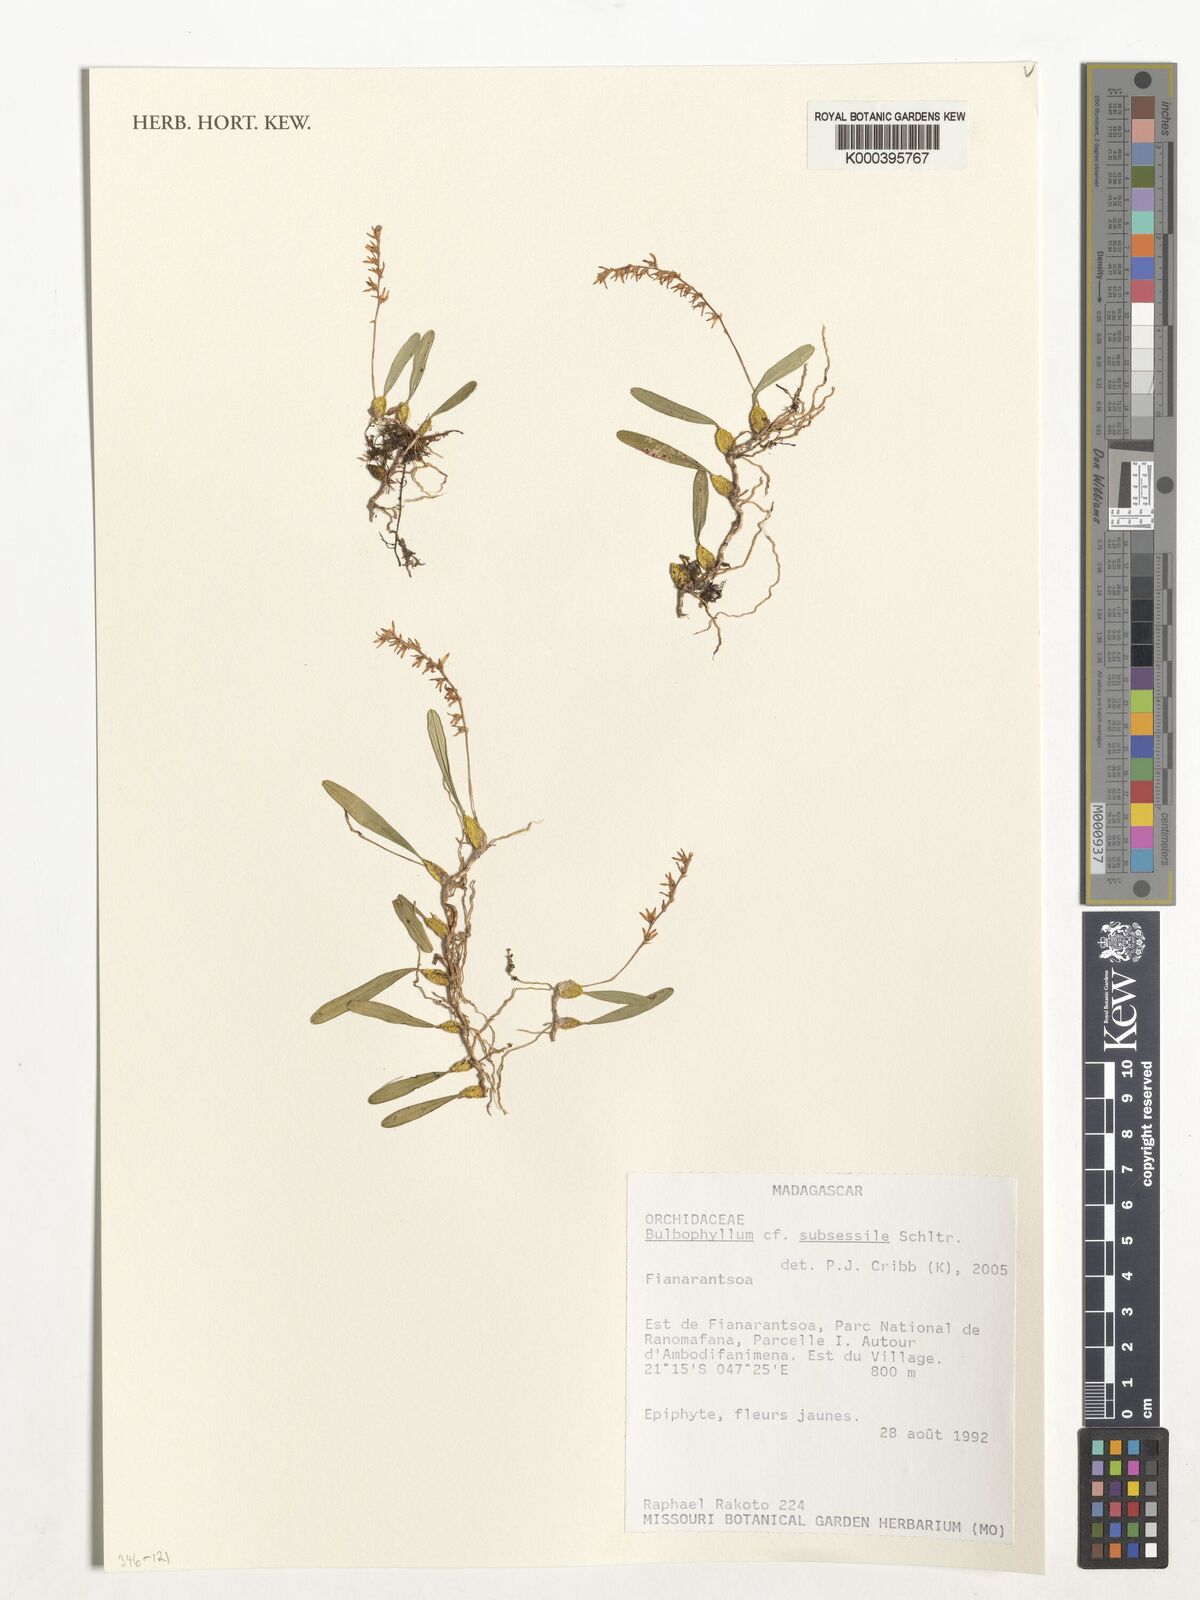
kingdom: Plantae
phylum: Tracheophyta
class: Liliopsida
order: Asparagales
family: Orchidaceae
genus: Bulbophyllum
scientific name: Bulbophyllum subsessile
